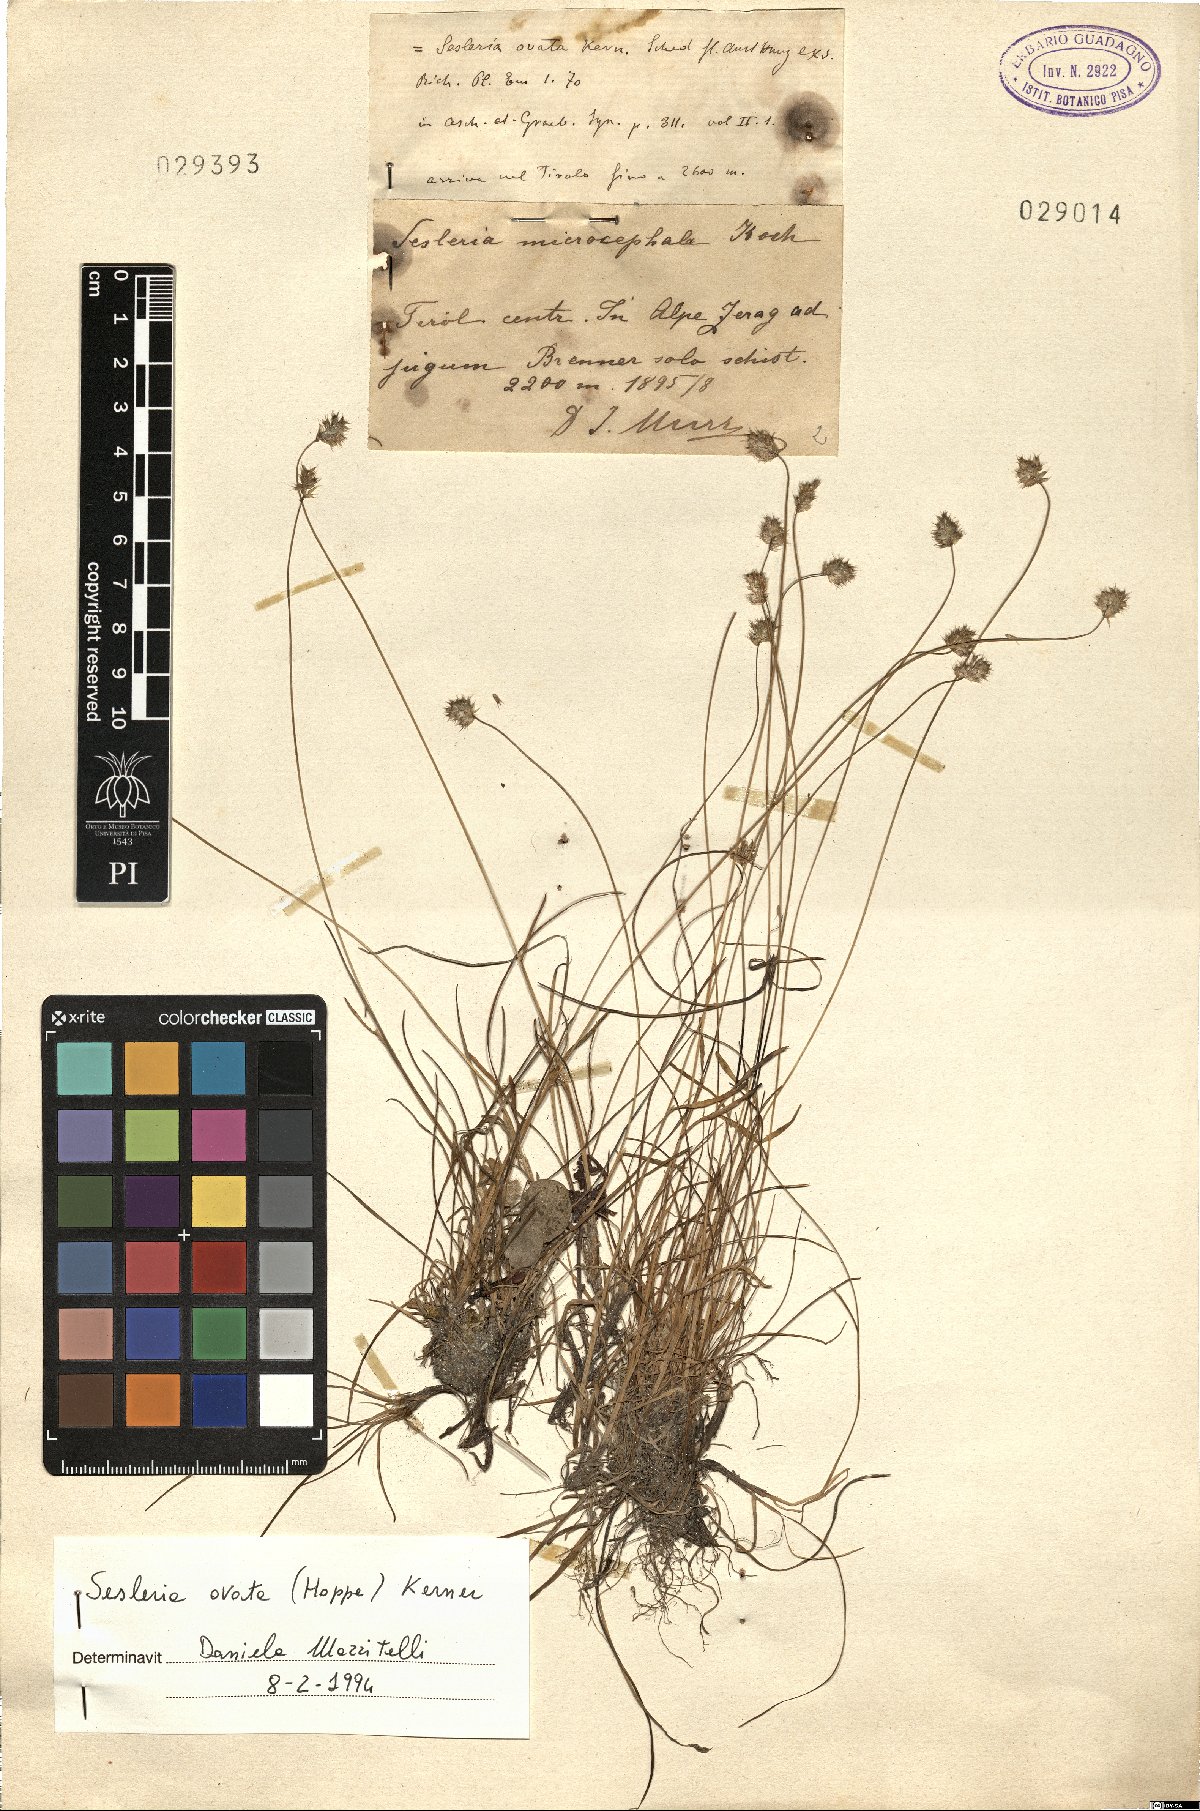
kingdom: Plantae
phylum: Tracheophyta
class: Liliopsida
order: Poales
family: Poaceae
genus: Psilathera
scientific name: Psilathera ovata
